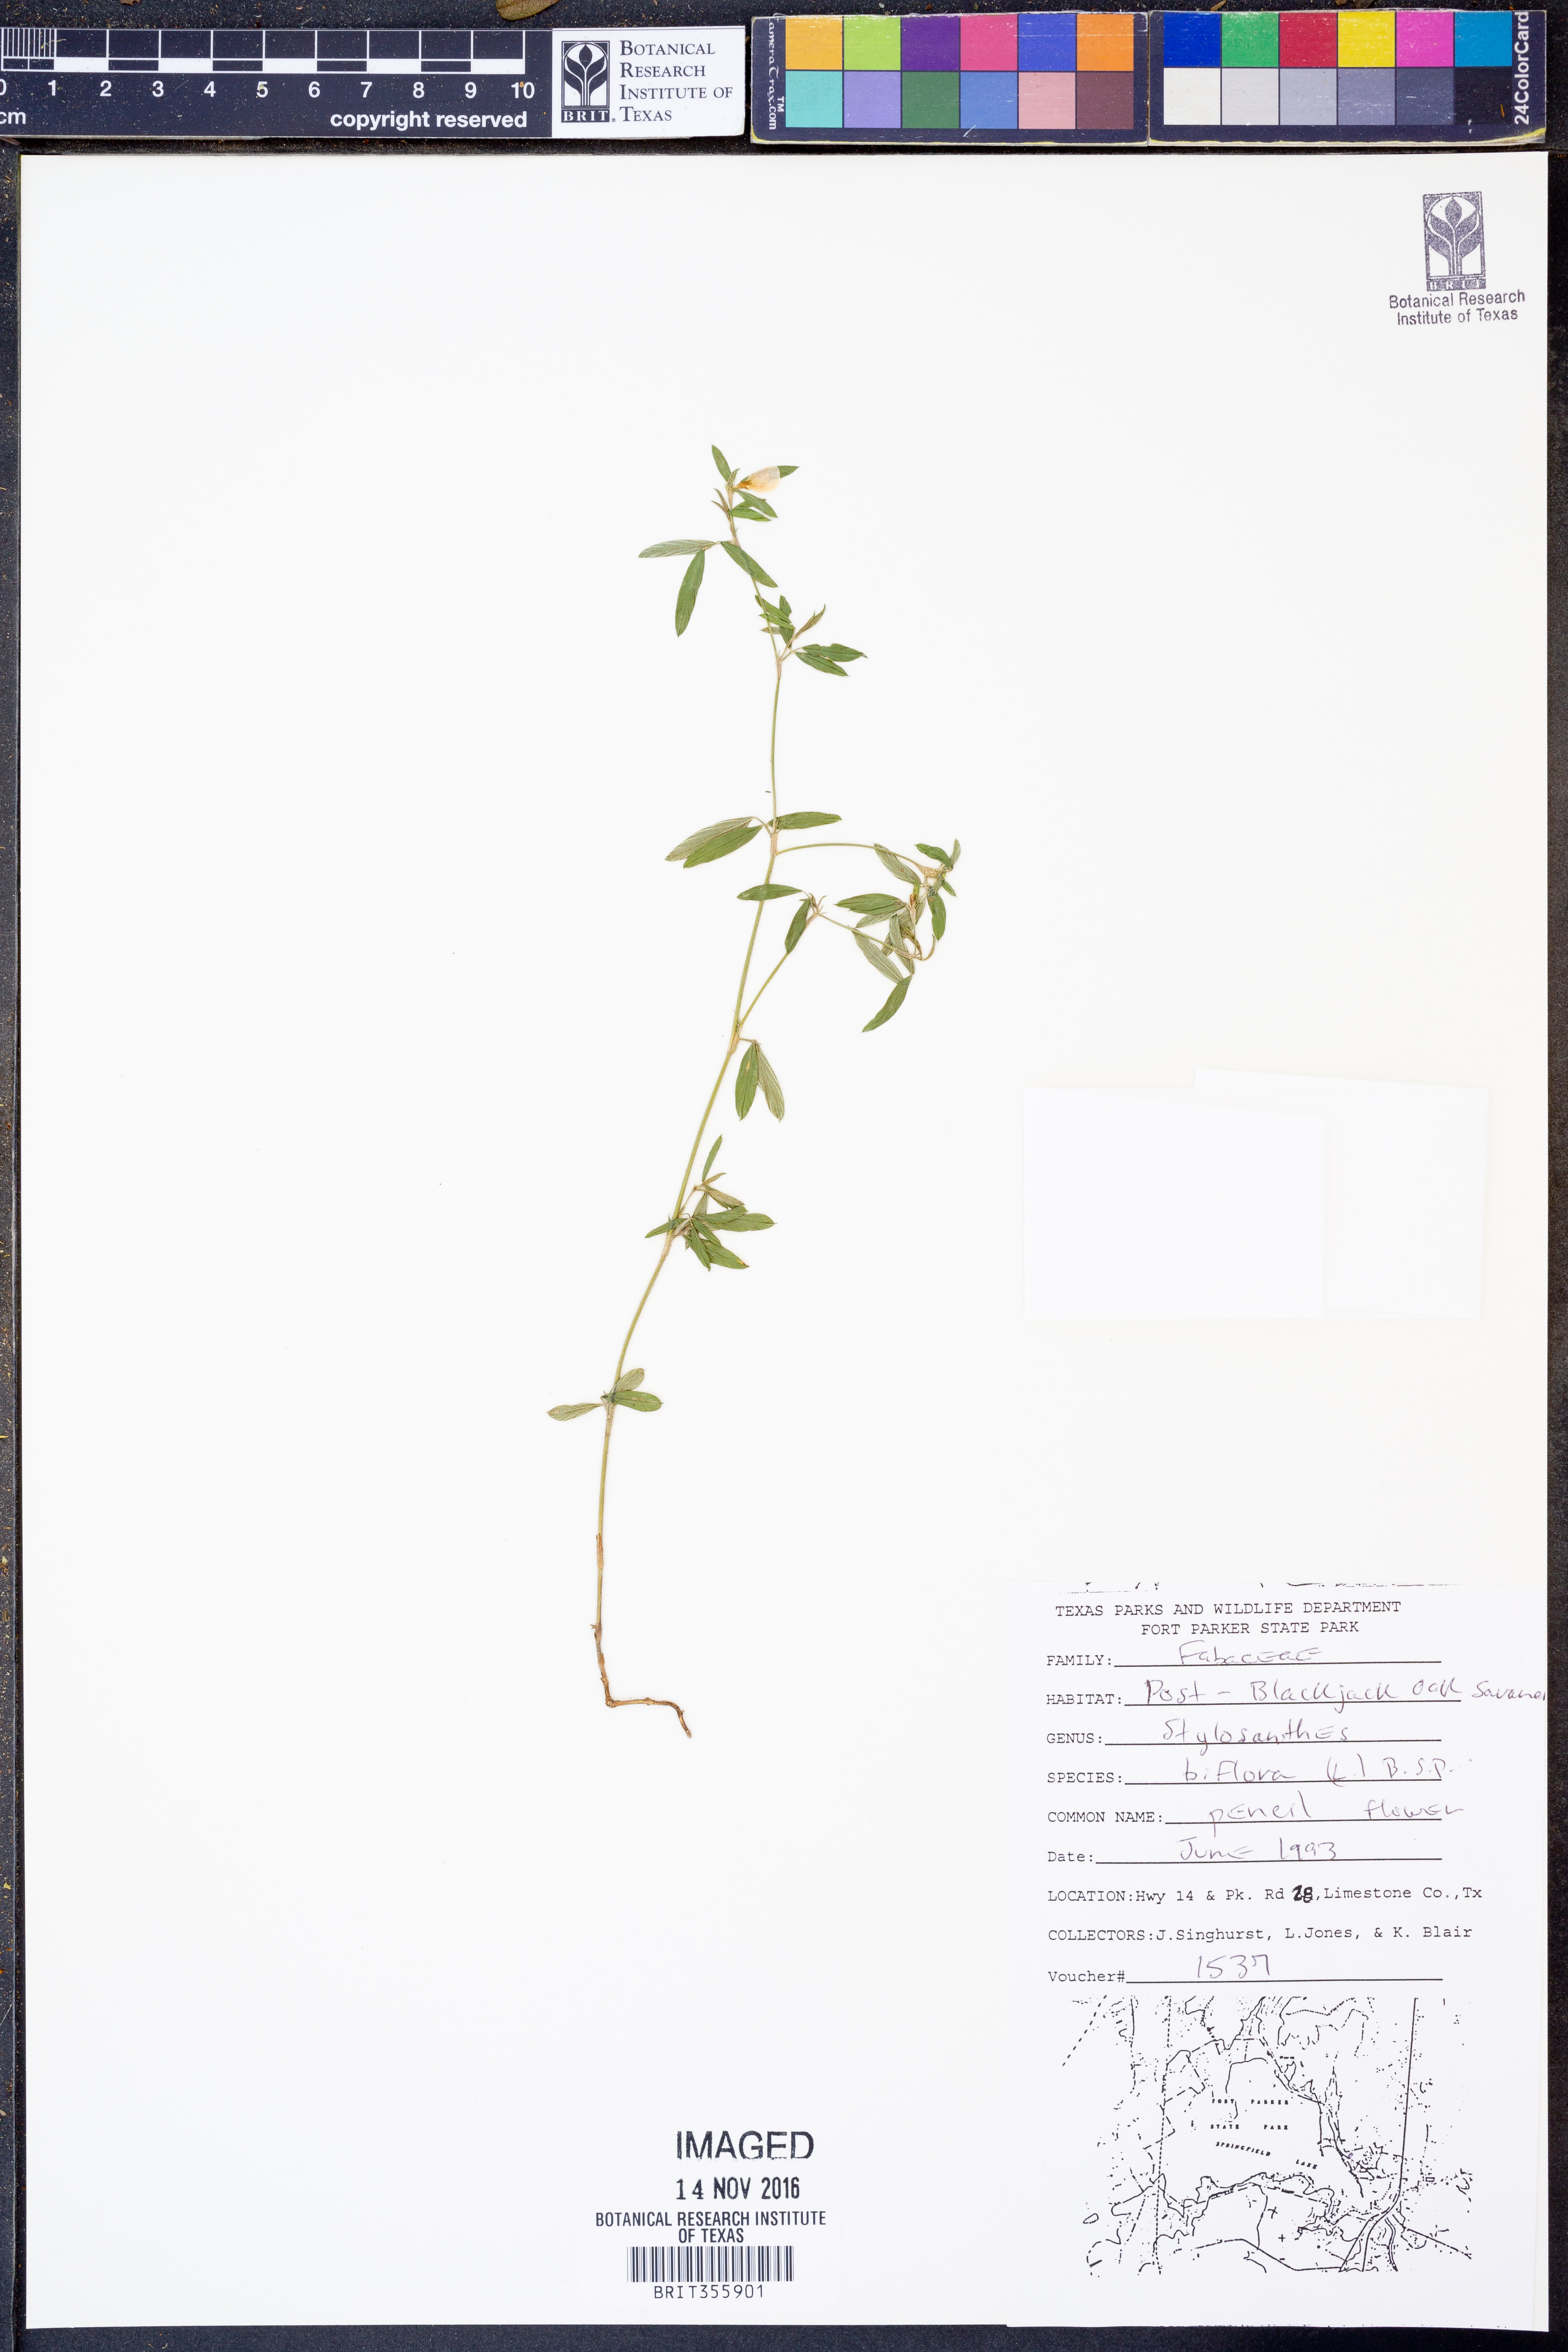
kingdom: Plantae
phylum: Tracheophyta
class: Magnoliopsida
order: Fabales
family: Fabaceae
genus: Stylosanthes
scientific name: Stylosanthes biflora
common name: Two-flower pencil-flower
